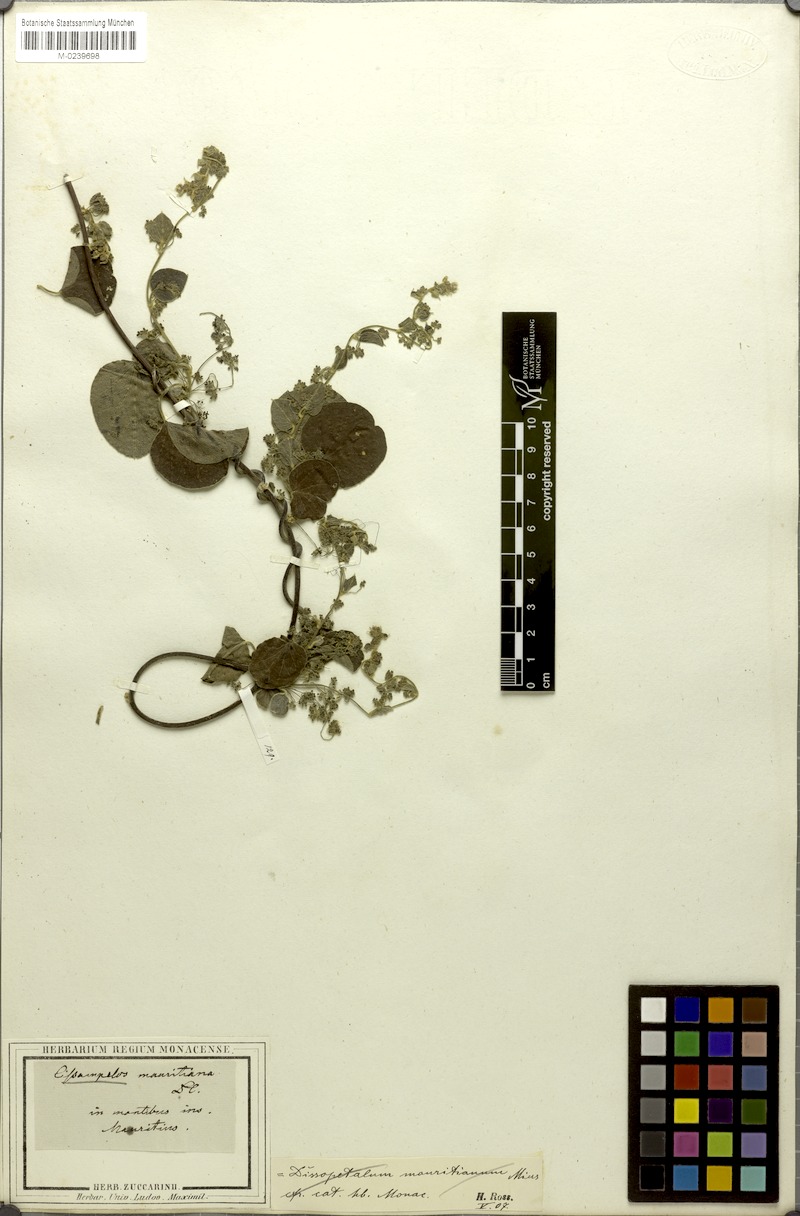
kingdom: Plantae
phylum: Tracheophyta
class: Magnoliopsida
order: Ranunculales
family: Menispermaceae
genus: Cissampelos
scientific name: Cissampelos pareira
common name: Velvetleaf
